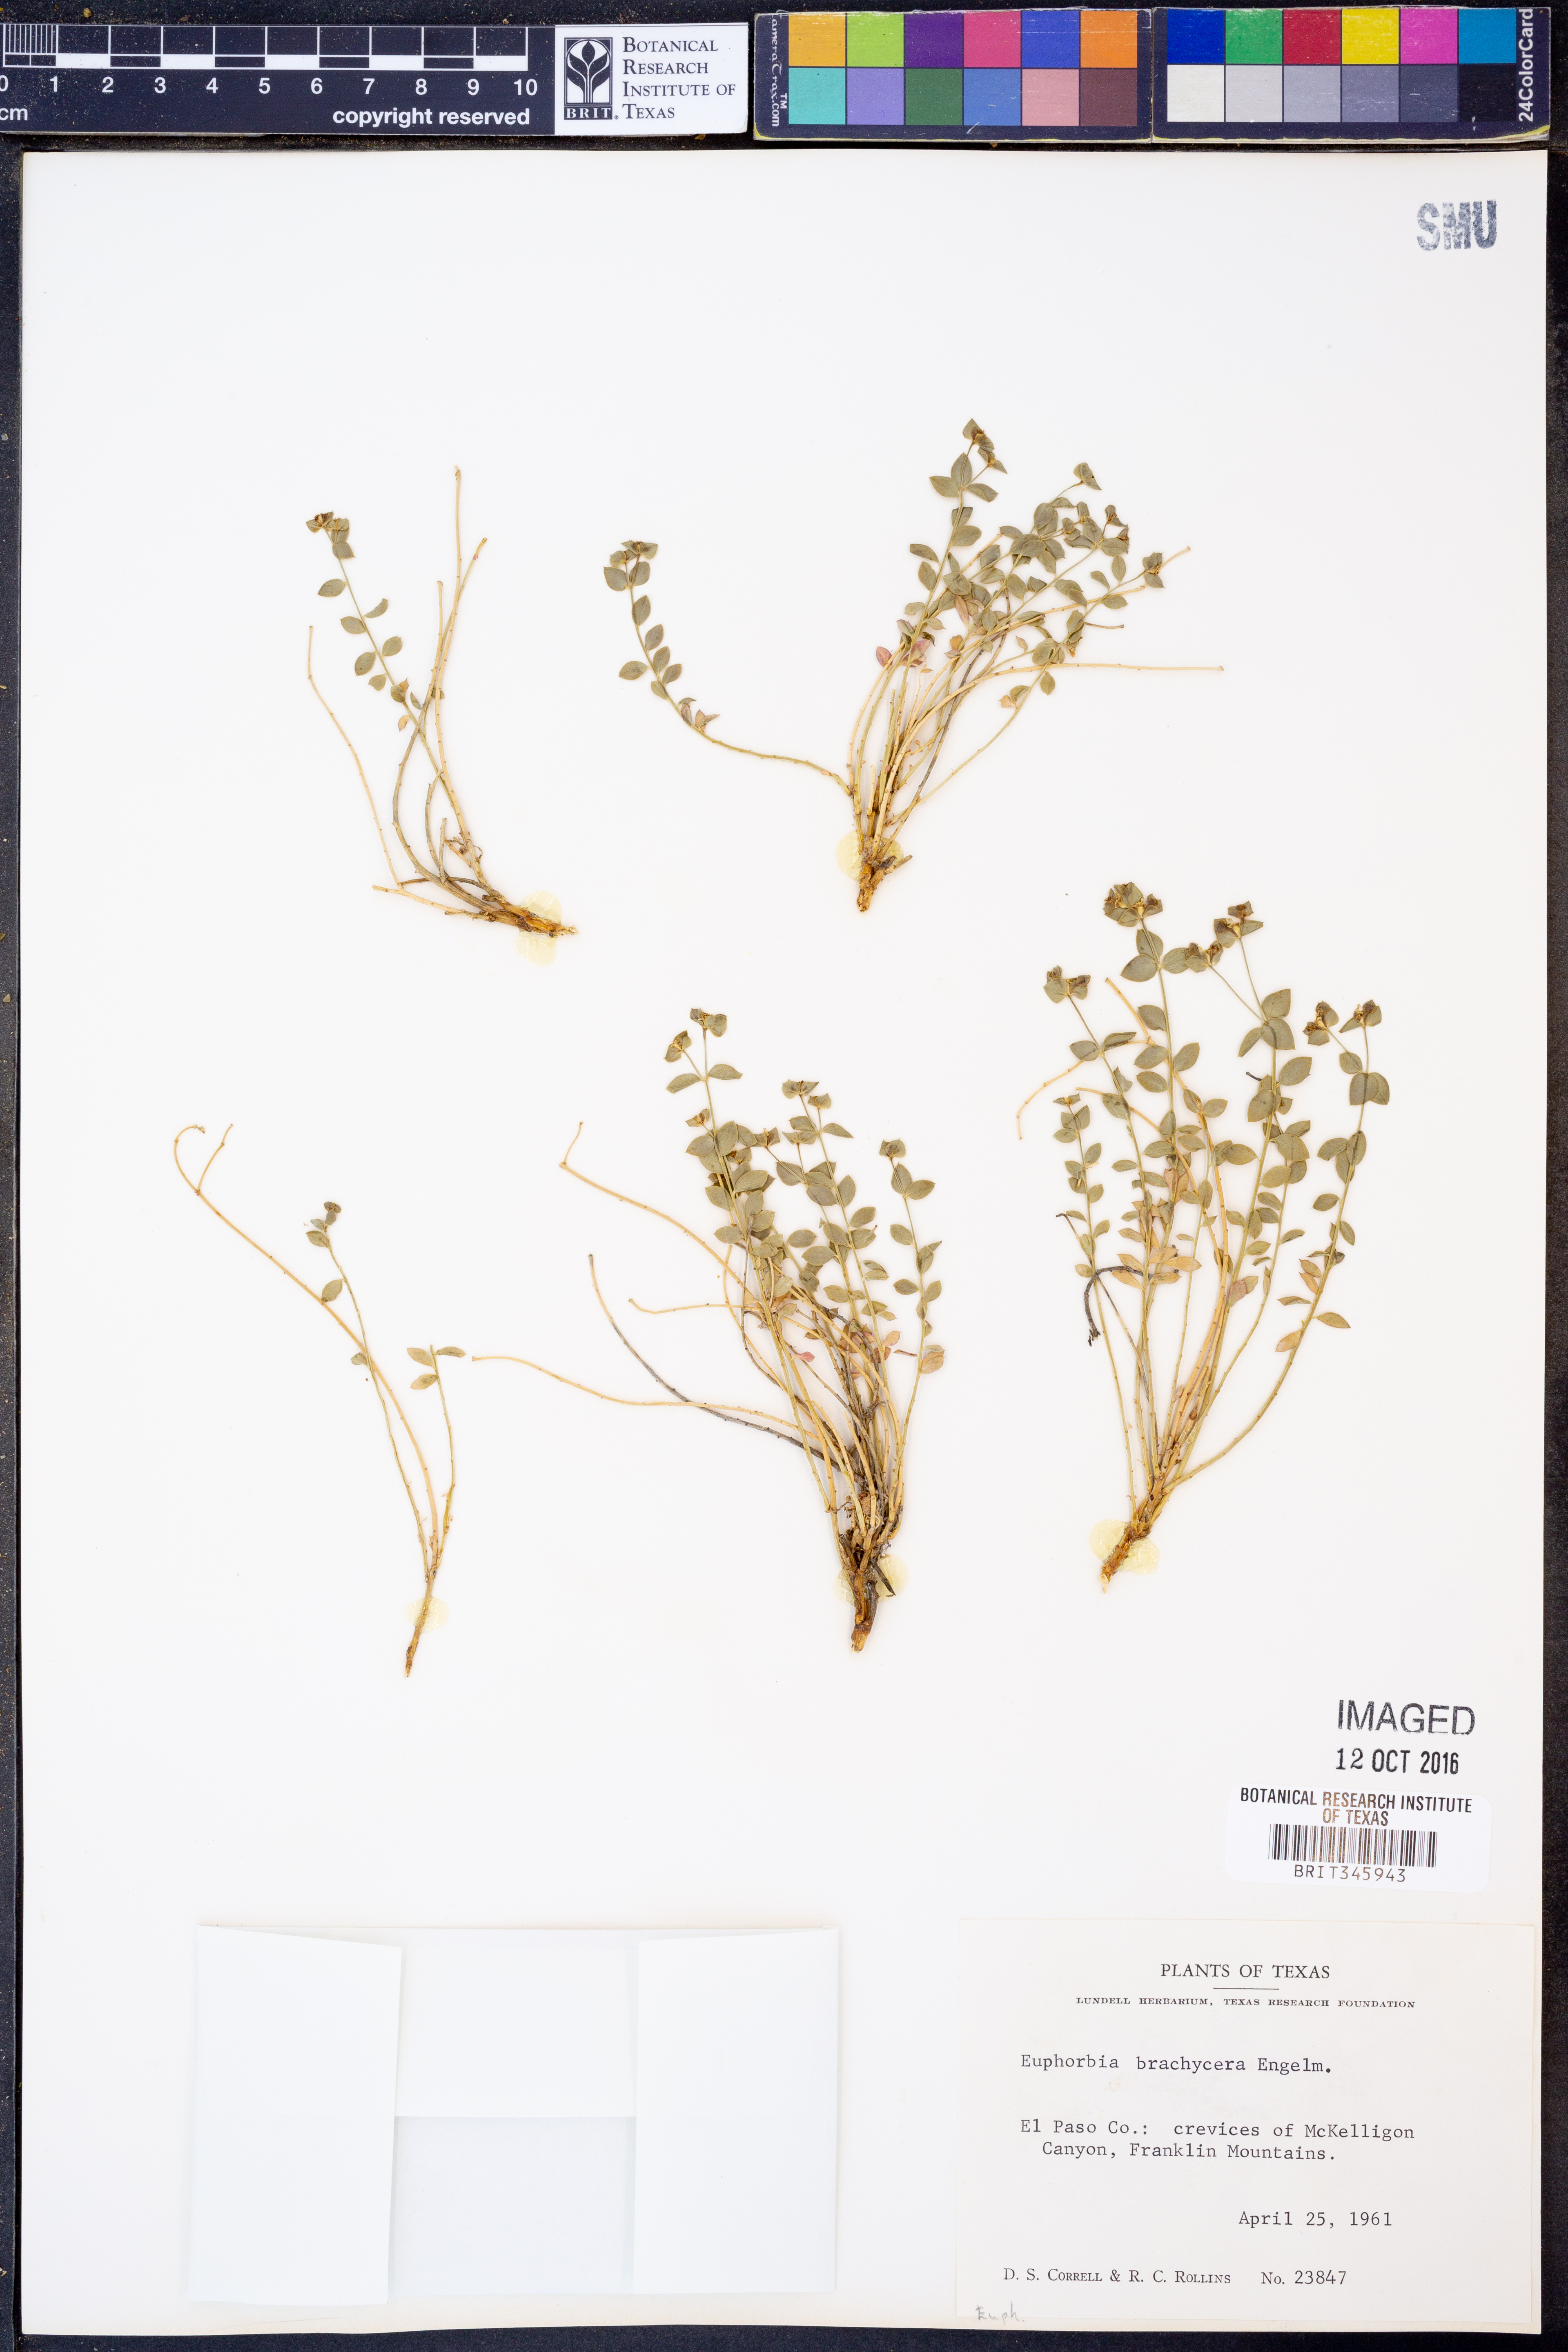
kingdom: Plantae
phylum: Tracheophyta
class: Magnoliopsida
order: Malpighiales
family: Euphorbiaceae
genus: Euphorbia
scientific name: Euphorbia brachycera
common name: Shorthorn spurge
